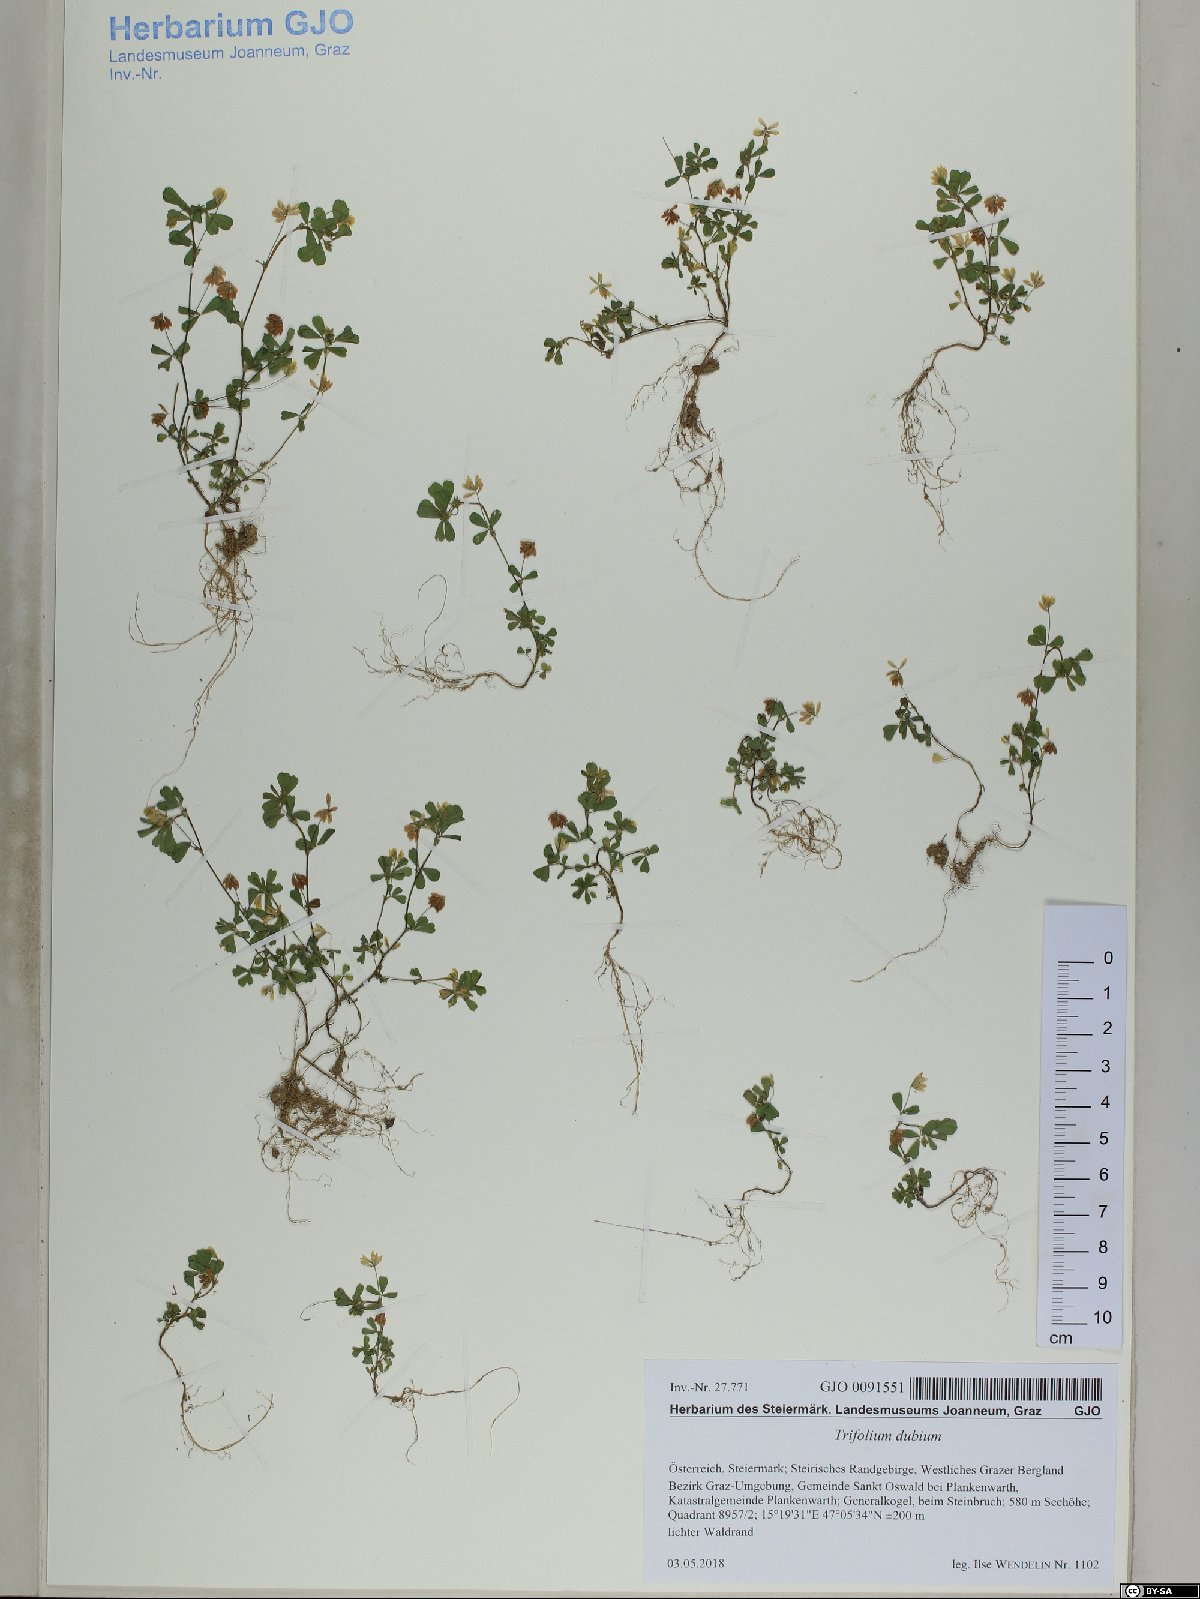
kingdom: Plantae
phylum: Tracheophyta
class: Magnoliopsida
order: Fabales
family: Fabaceae
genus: Trifolium
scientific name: Trifolium dubium
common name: Suckling clover
